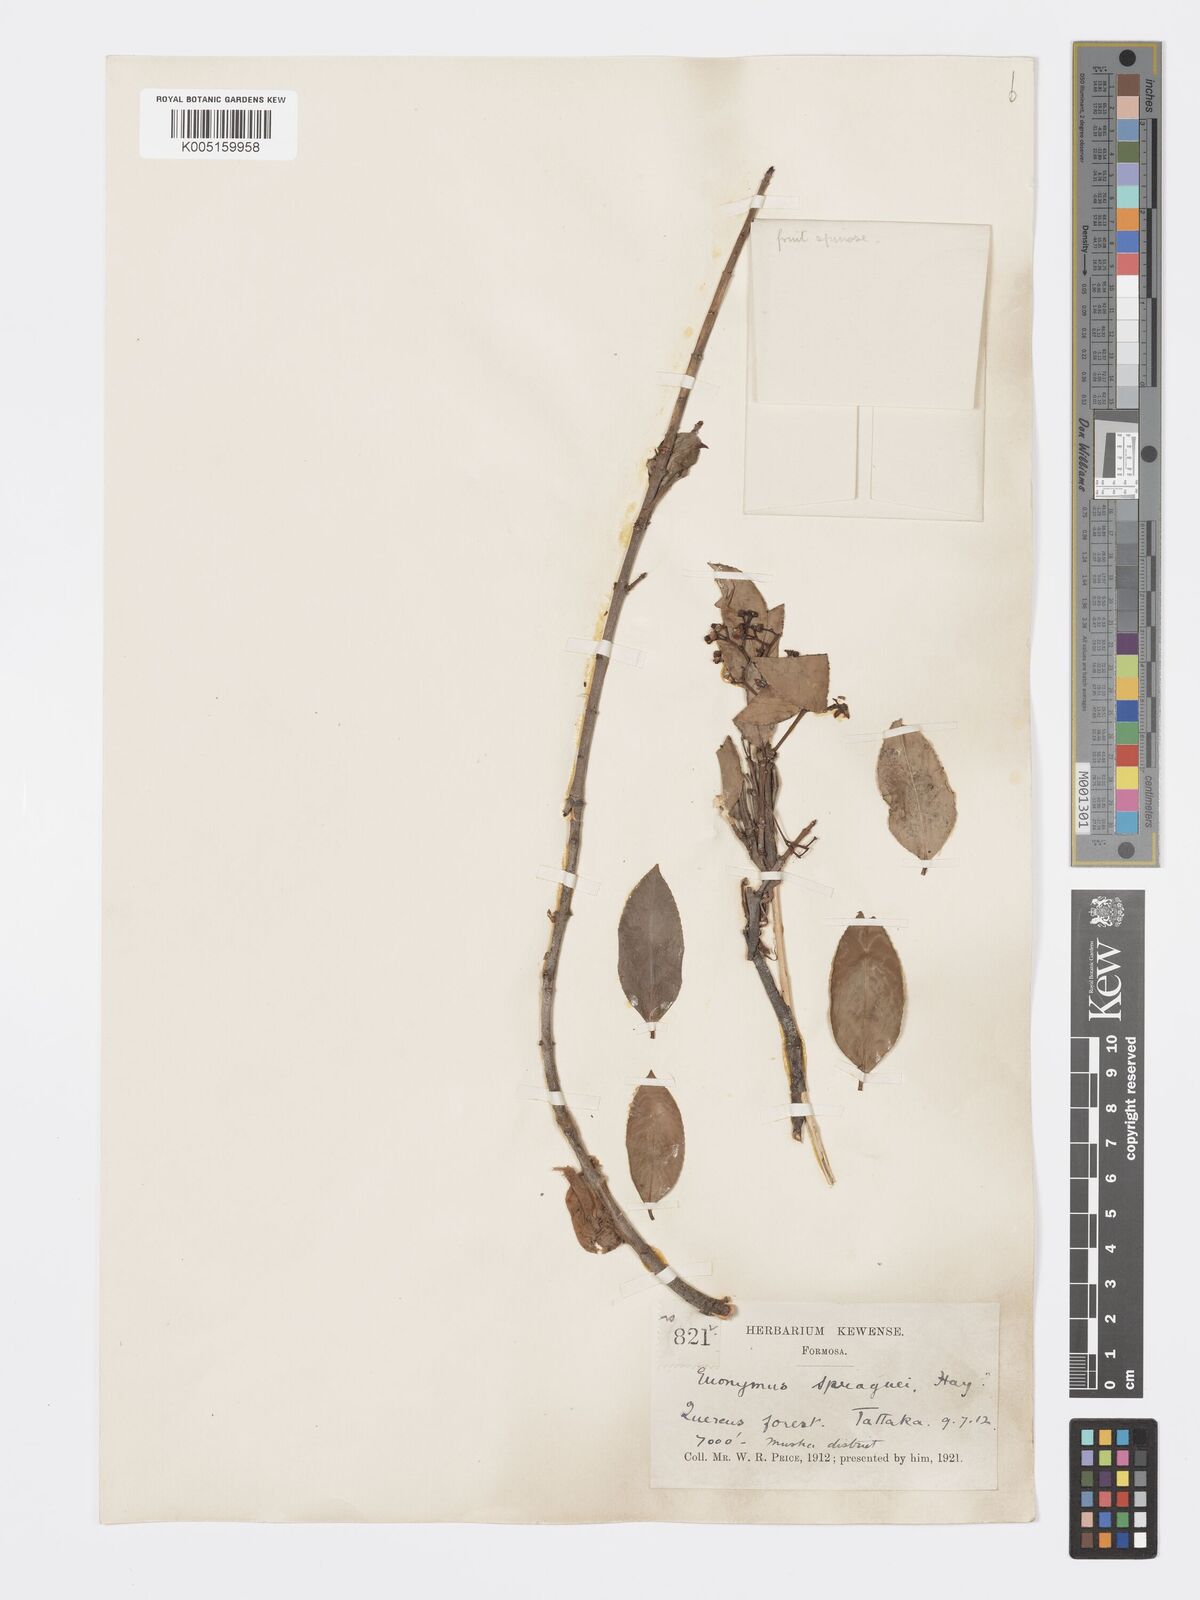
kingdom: Plantae
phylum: Tracheophyta
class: Magnoliopsida
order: Celastrales
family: Celastraceae
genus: Euonymus
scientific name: Euonymus spraguei
